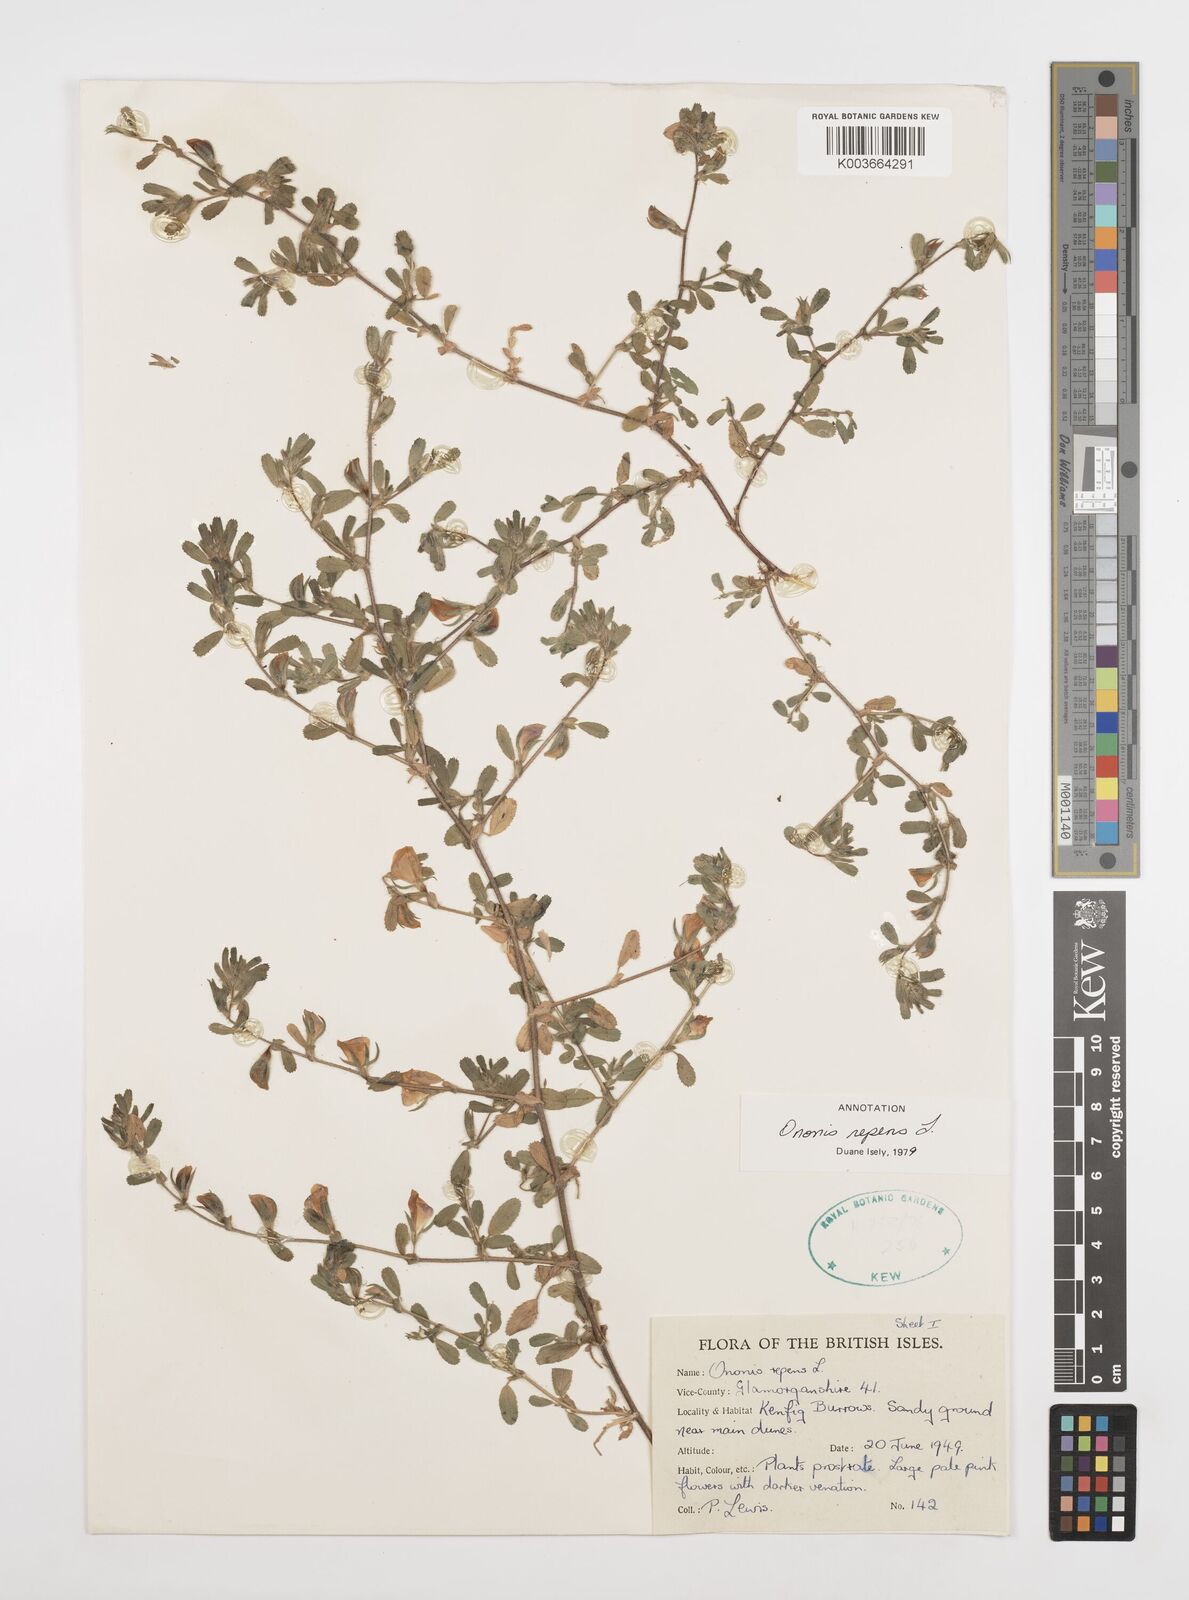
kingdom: Plantae
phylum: Tracheophyta
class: Magnoliopsida
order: Fabales
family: Fabaceae
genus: Ononis
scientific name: Ononis spinosa
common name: Spiny restharrow
